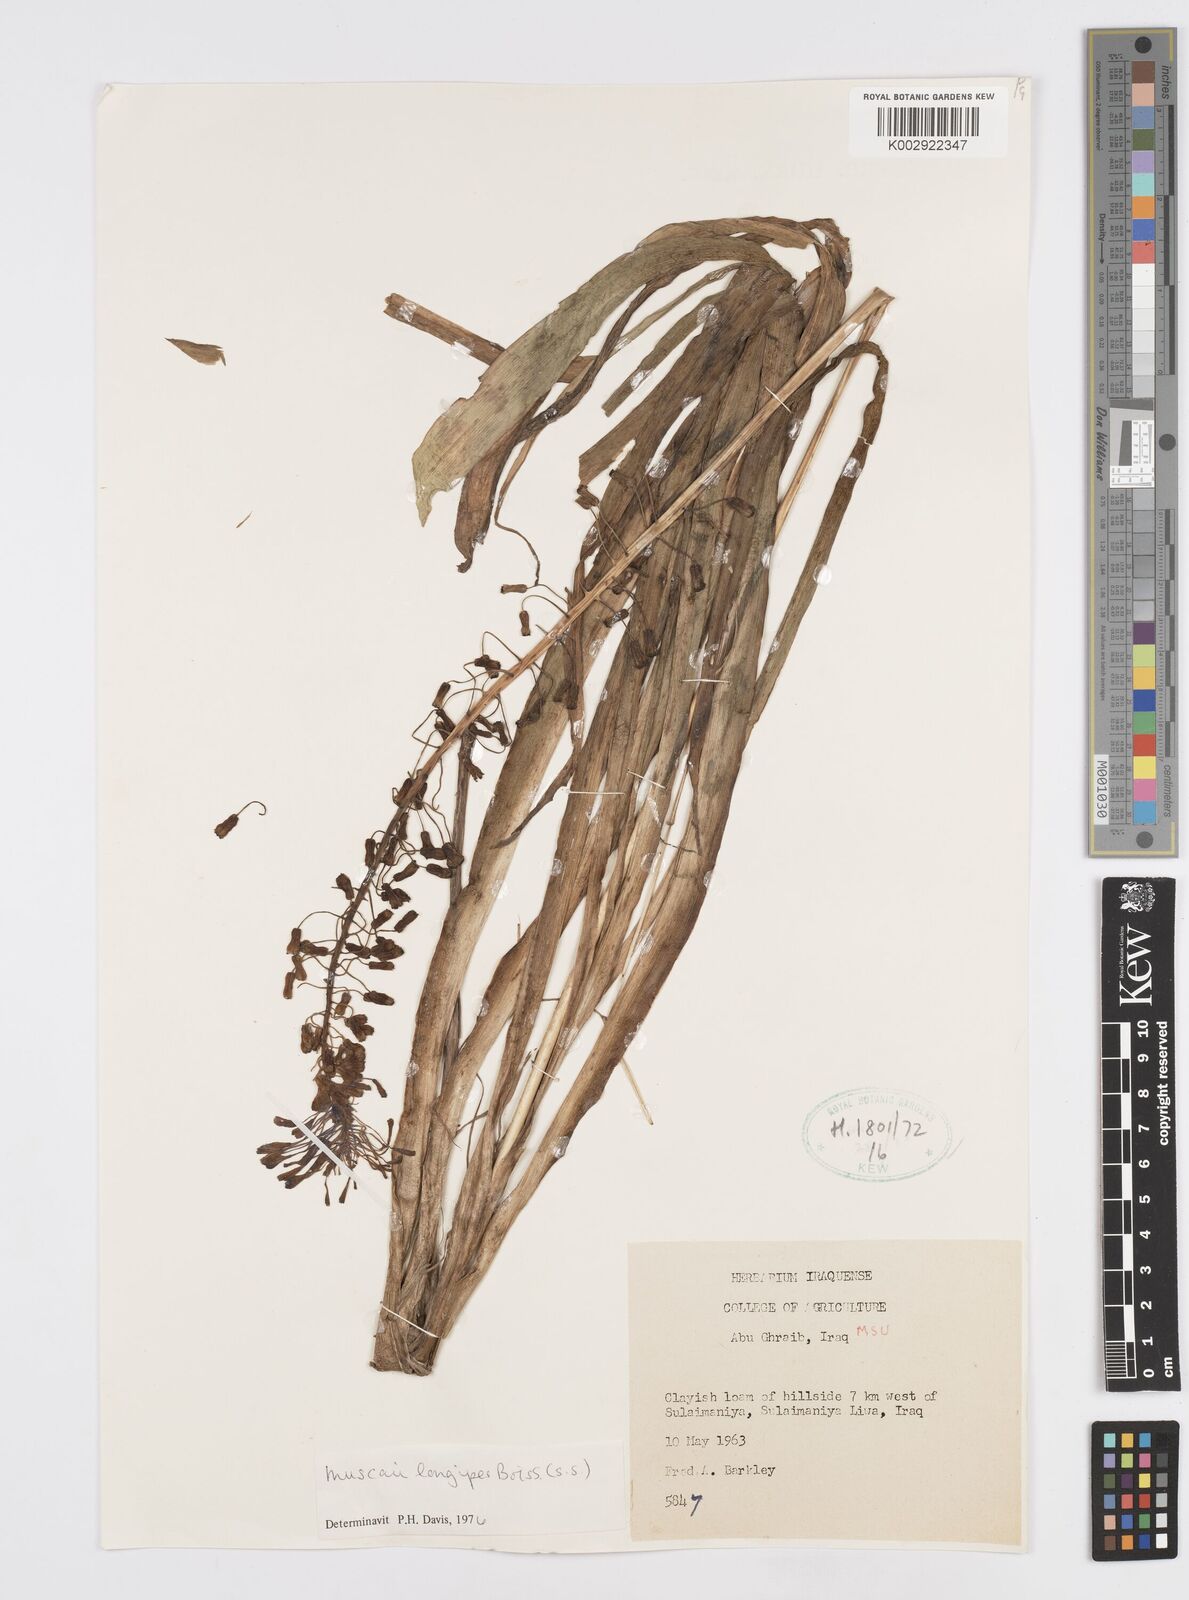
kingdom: Plantae
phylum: Tracheophyta
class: Liliopsida
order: Asparagales
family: Asparagaceae
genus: Muscari
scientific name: Muscari longipes
